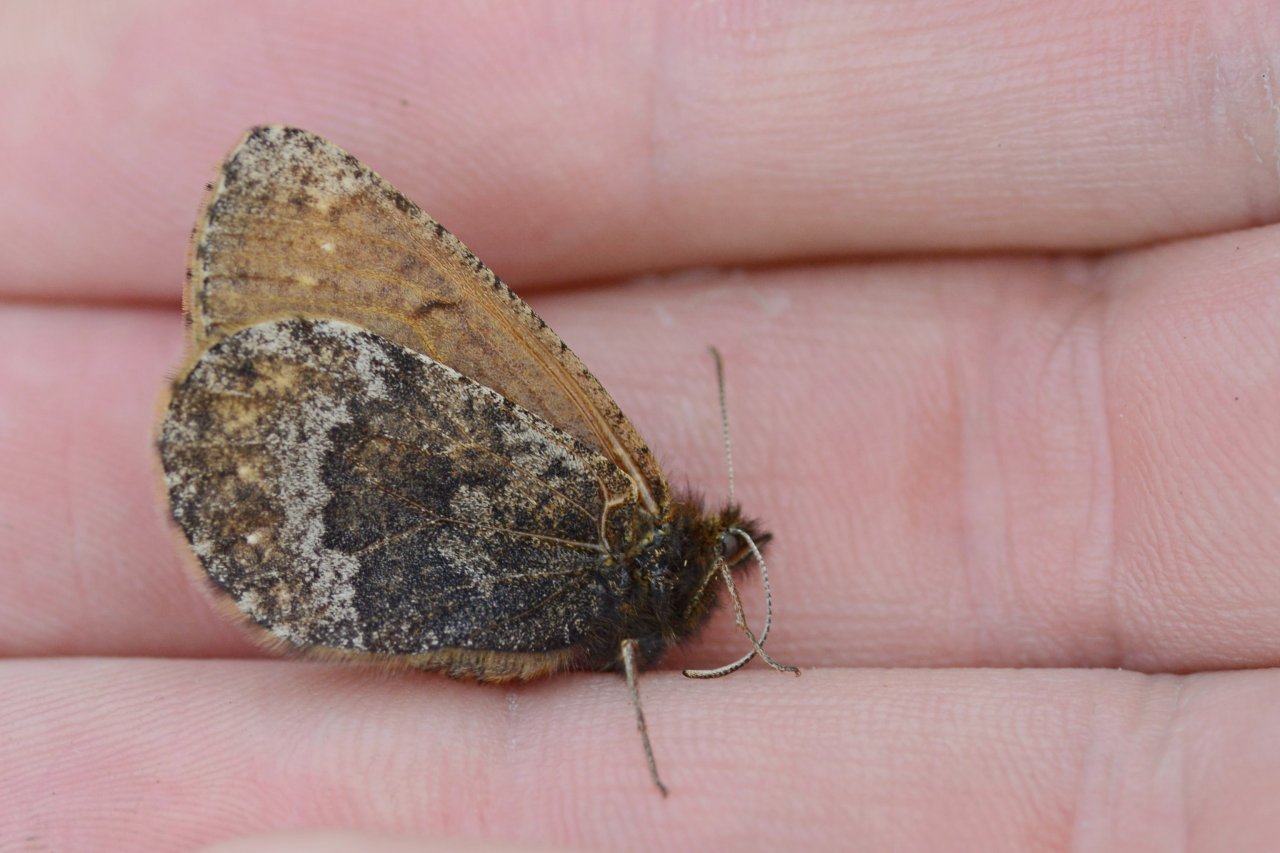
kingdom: Animalia
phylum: Arthropoda
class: Insecta
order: Lepidoptera
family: Nymphalidae
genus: Oeneis
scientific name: Oeneis bore
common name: Polixenes Arctic
